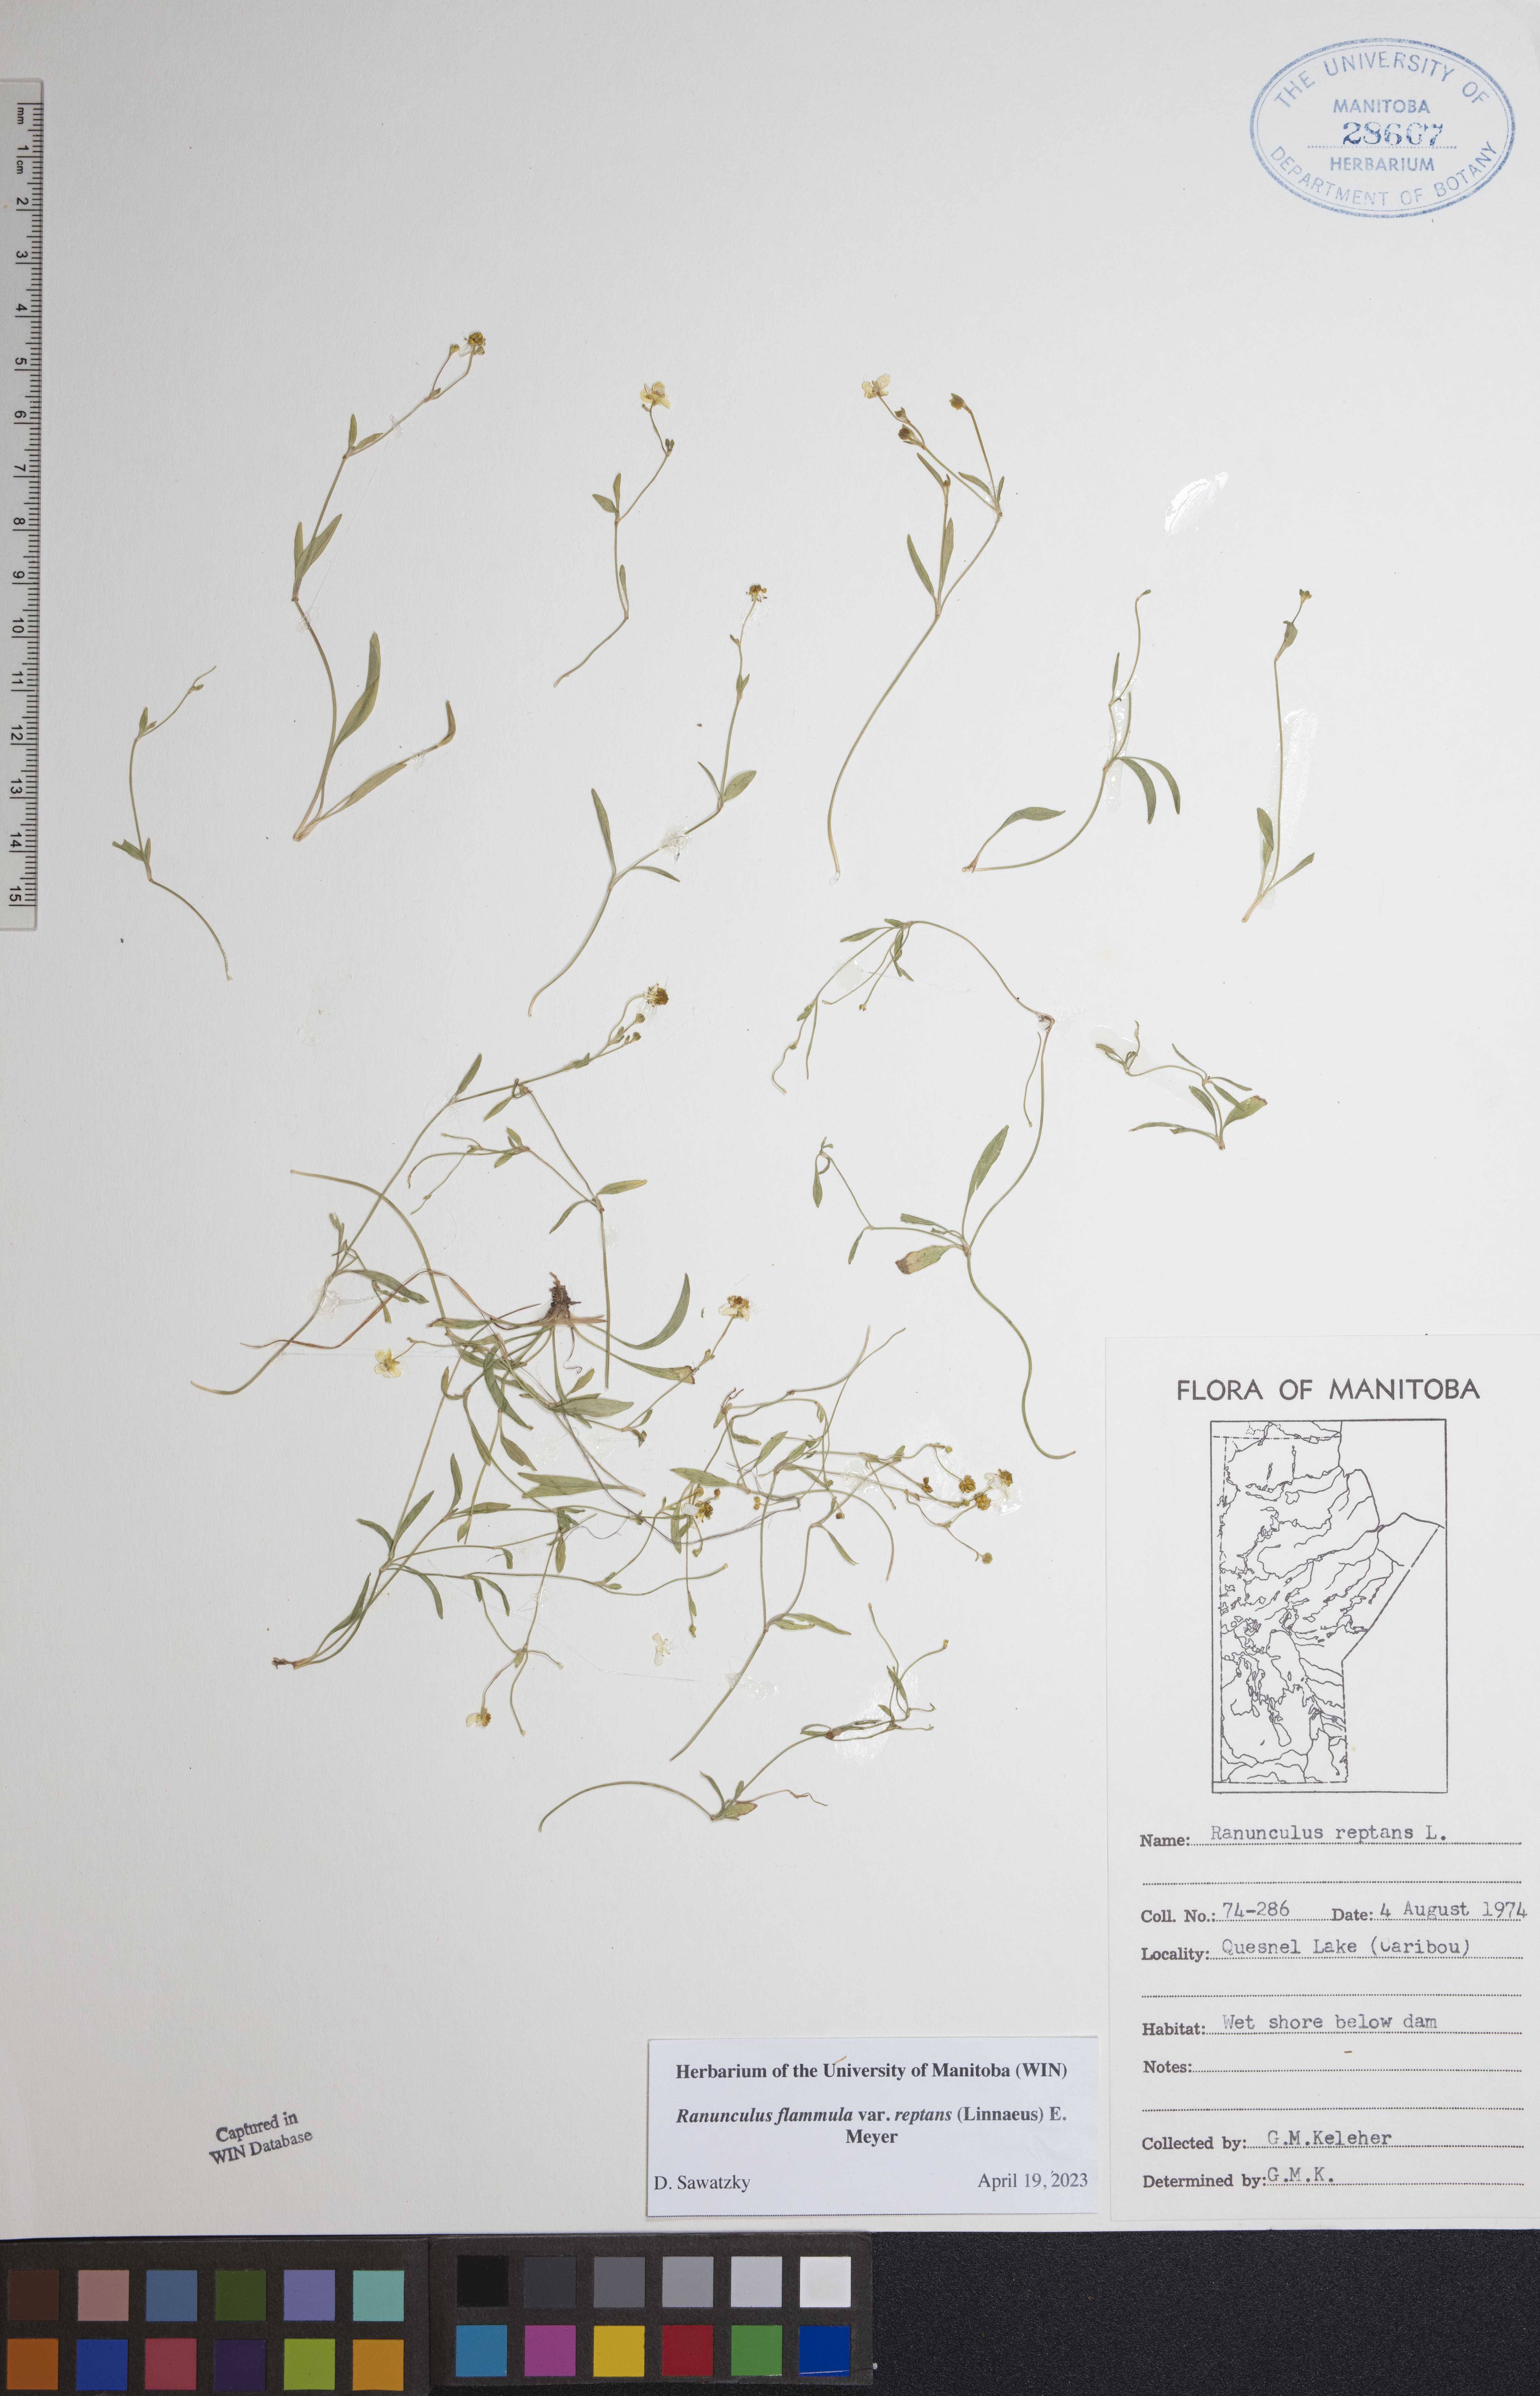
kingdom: Plantae
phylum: Tracheophyta
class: Magnoliopsida
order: Ranunculales
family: Ranunculaceae
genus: Ranunculus
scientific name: Ranunculus reptans
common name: Creeping spearwort
